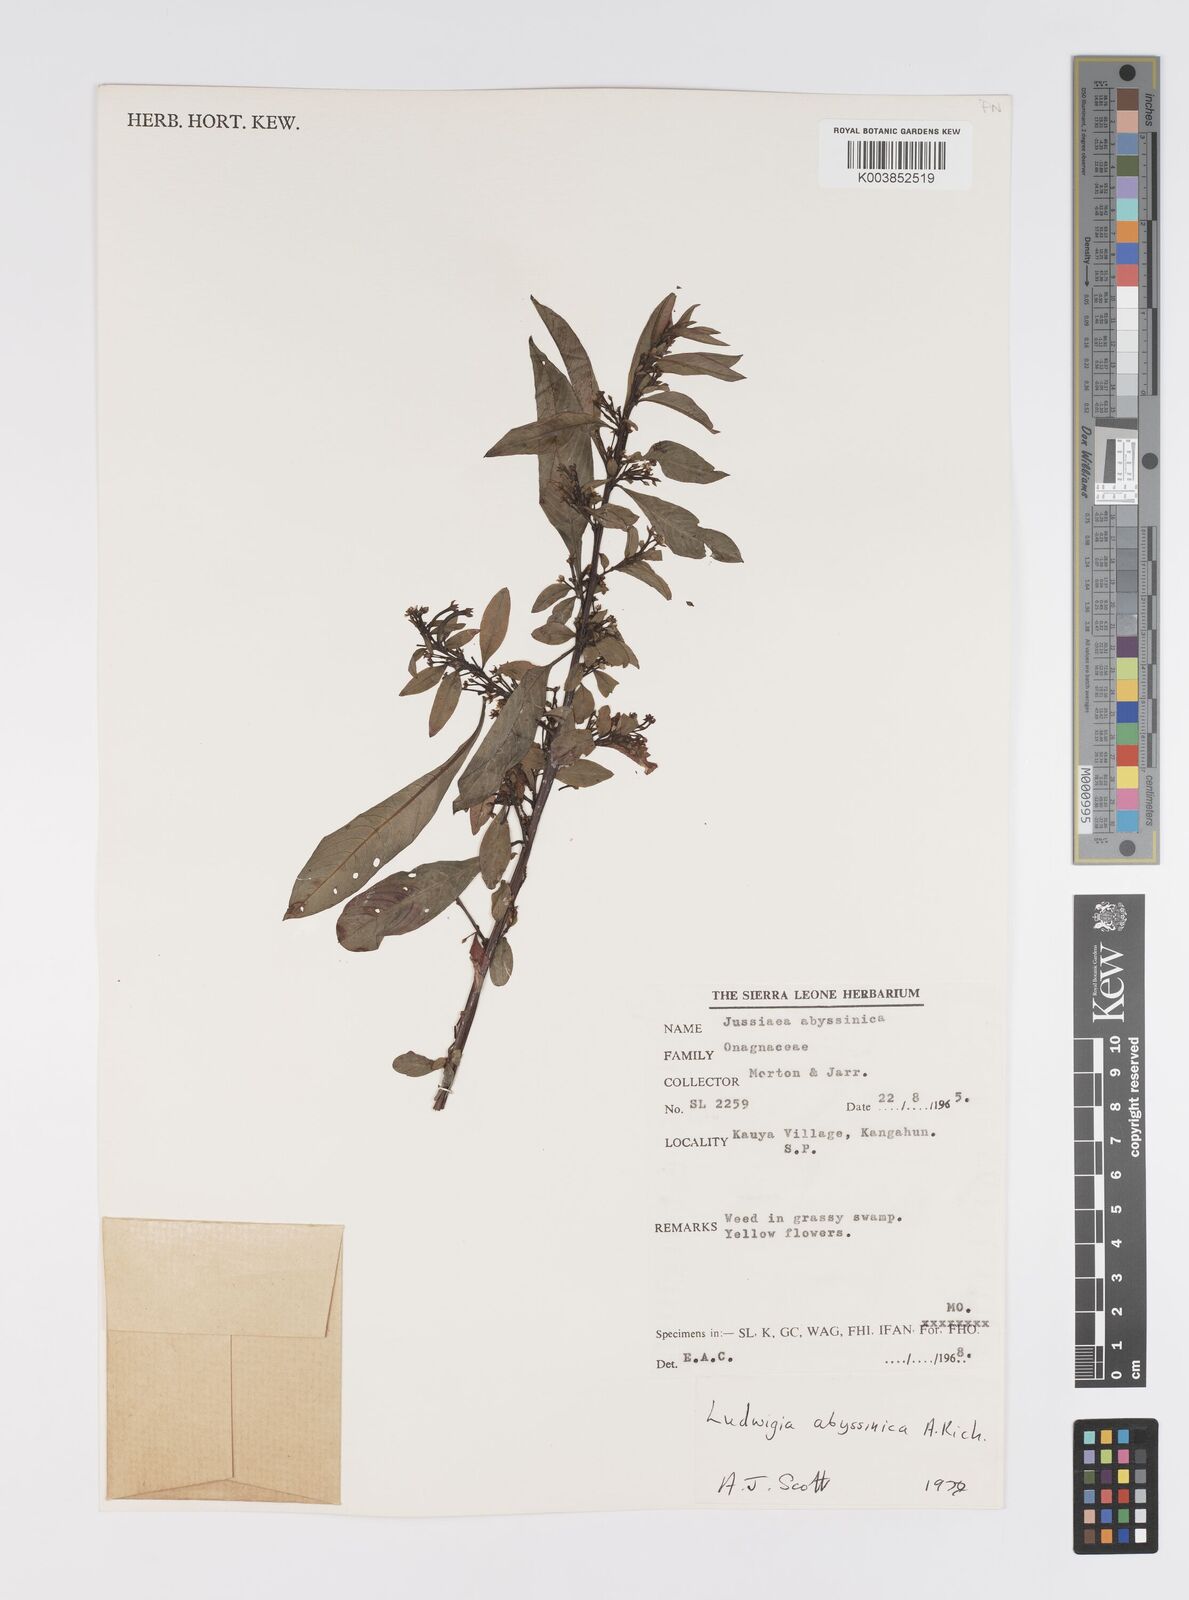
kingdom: Plantae
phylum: Tracheophyta
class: Magnoliopsida
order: Myrtales
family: Onagraceae
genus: Ludwigia
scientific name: Ludwigia abyssinica
